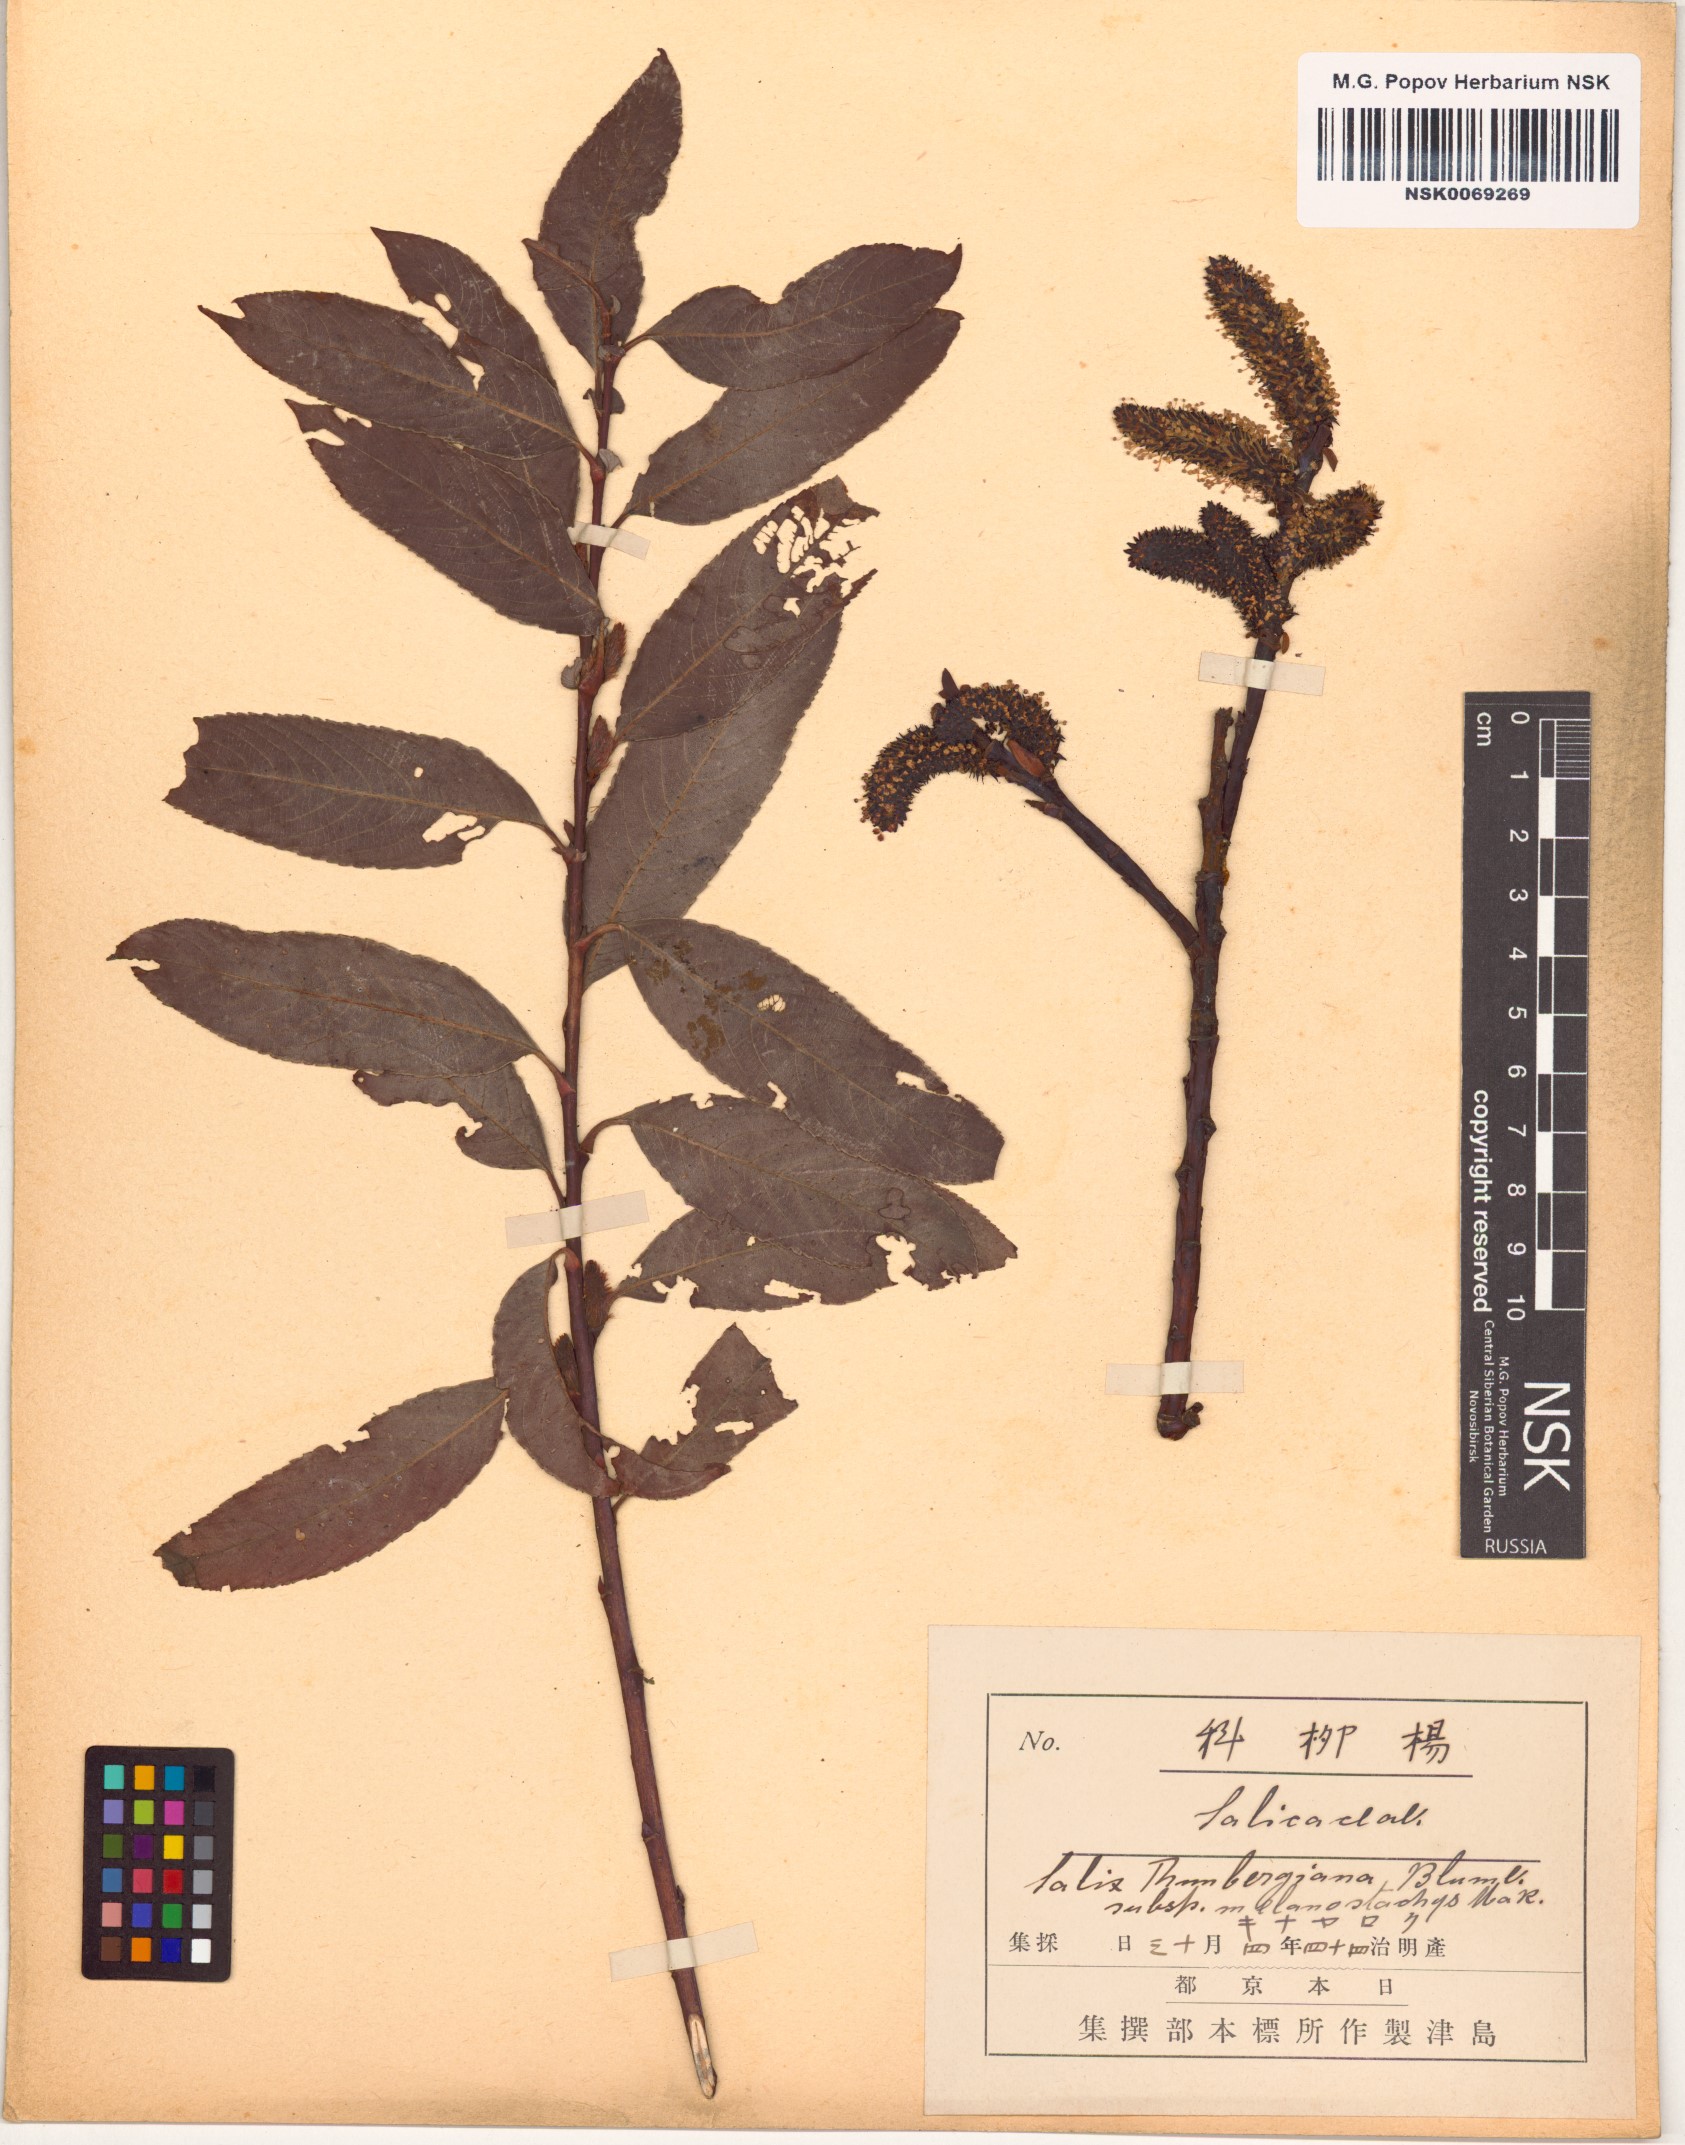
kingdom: Plantae
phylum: Tracheophyta
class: Magnoliopsida
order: Malpighiales
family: Salicaceae
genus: Salix
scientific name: Salix gracilistyla
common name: Rose-gold pussy willow
